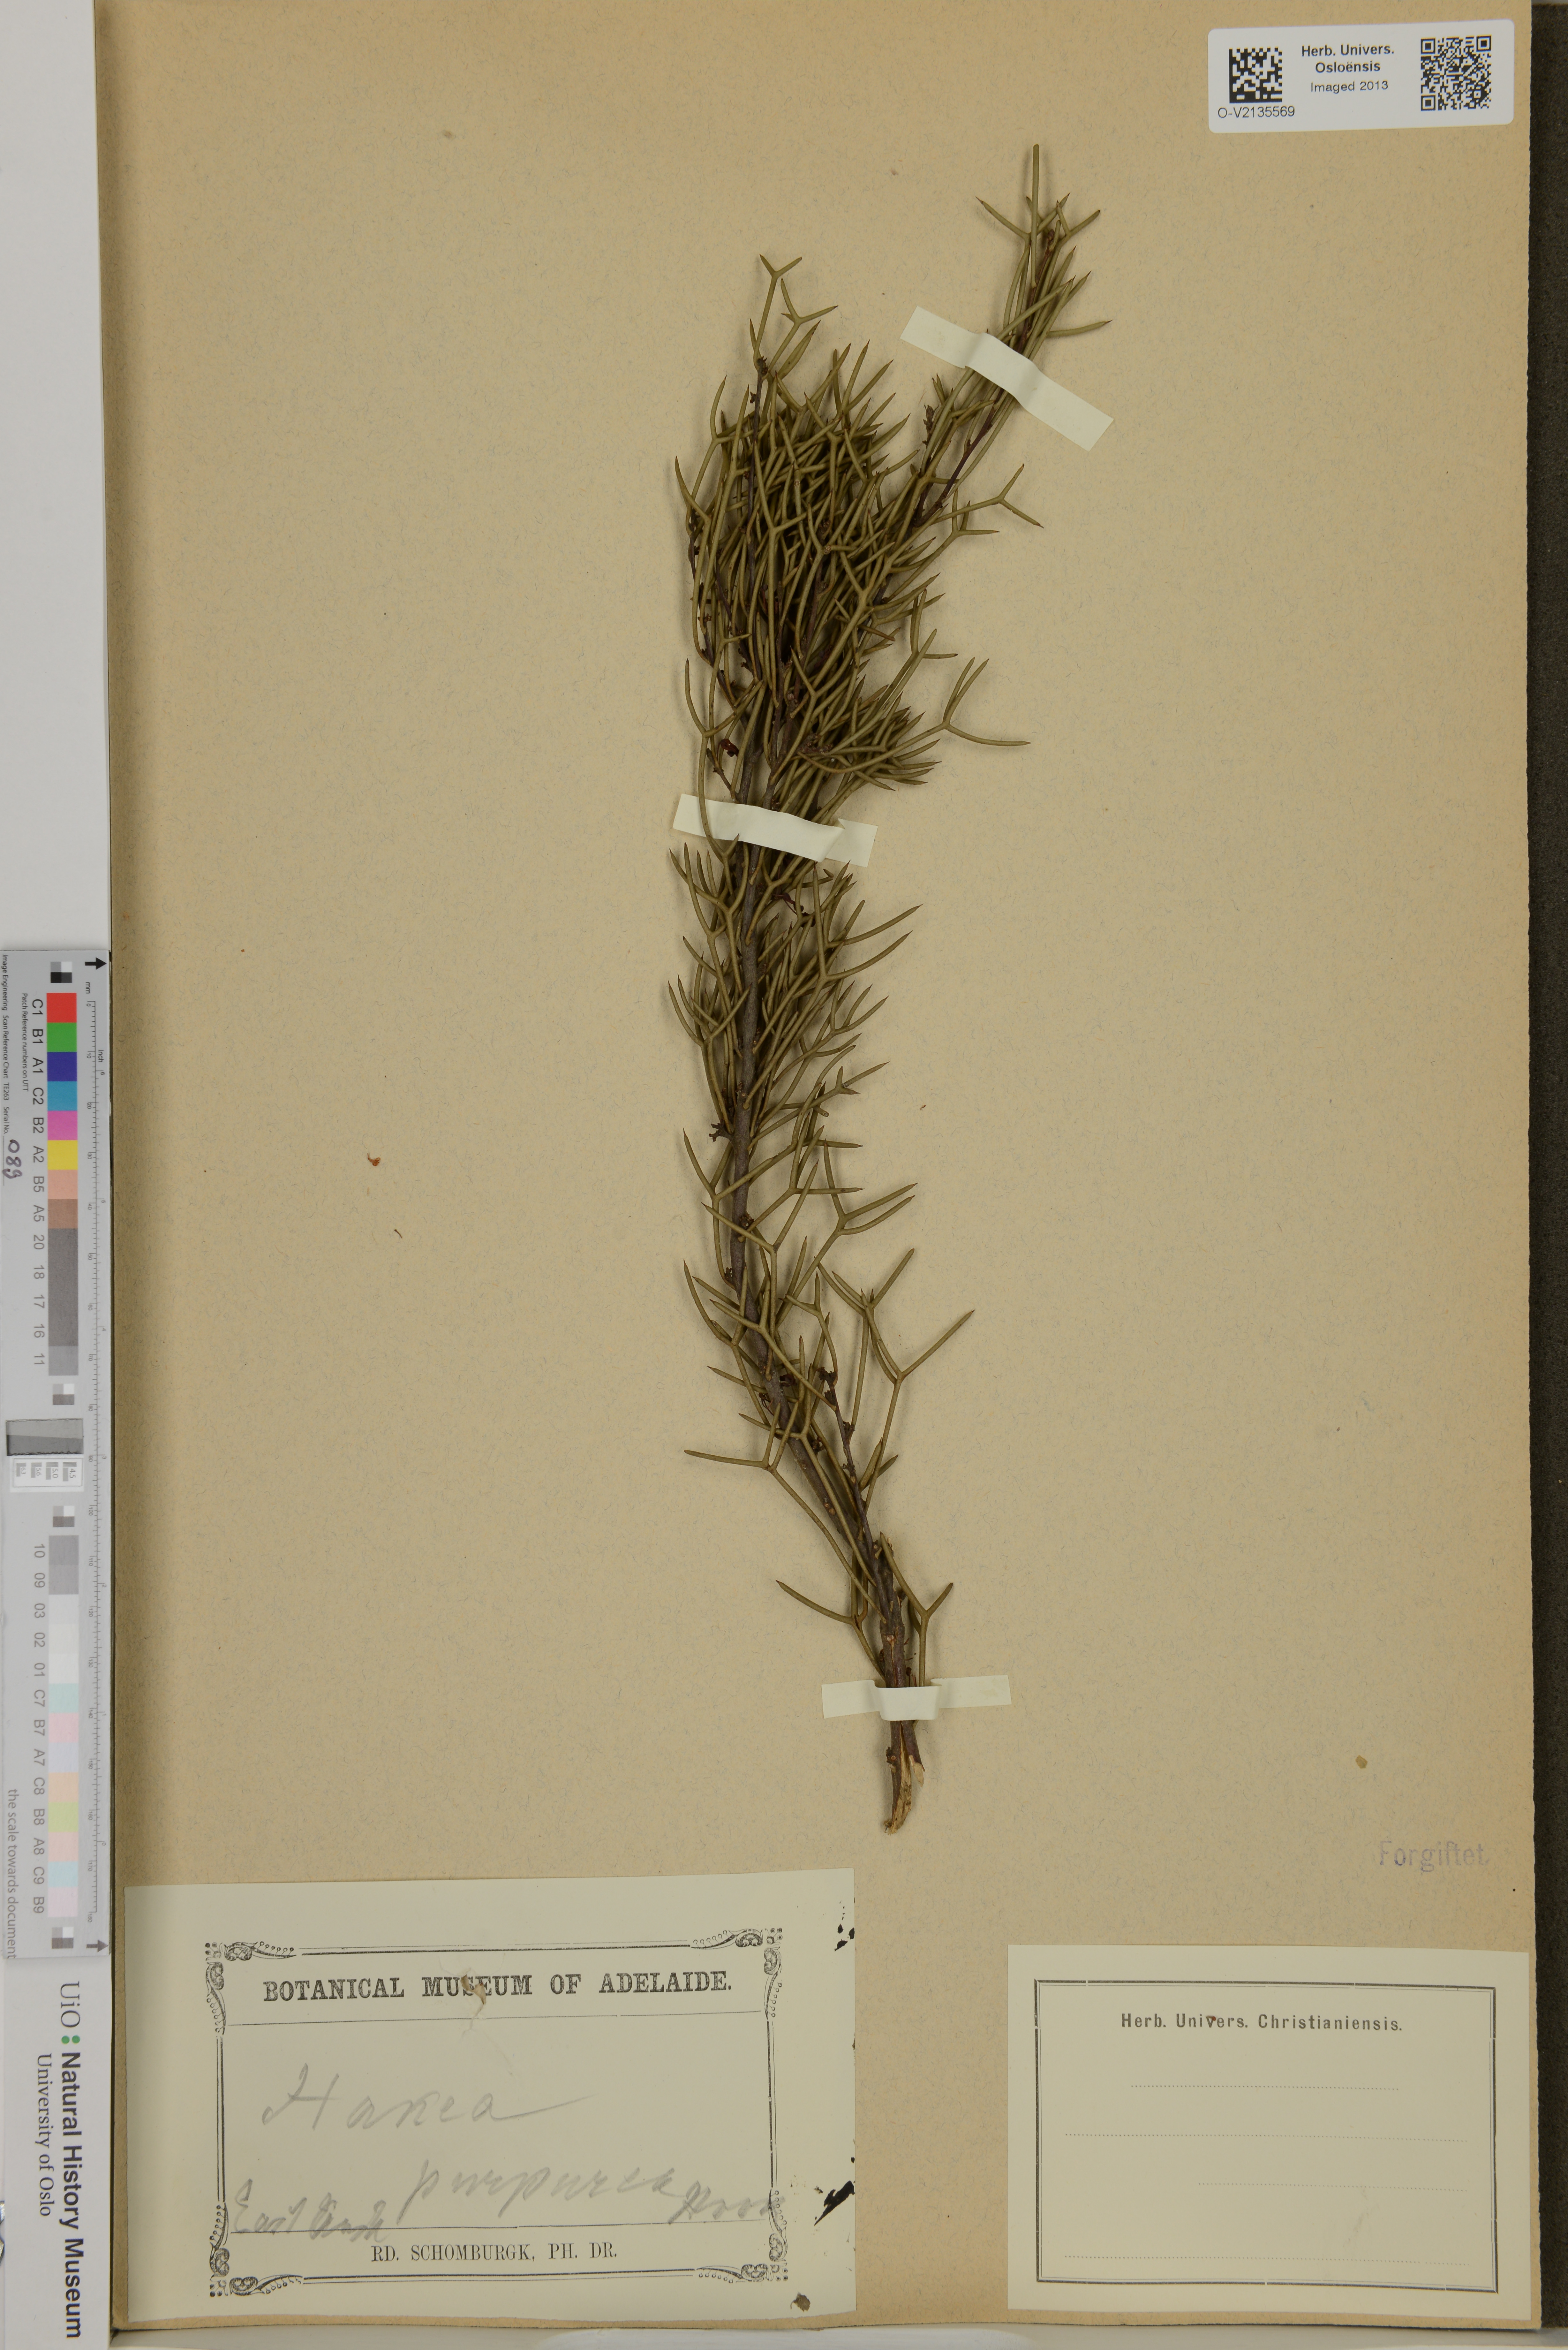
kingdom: Plantae
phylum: Tracheophyta
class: Magnoliopsida
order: Proteales
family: Proteaceae
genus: Hakea
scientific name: Hakea purpurea
